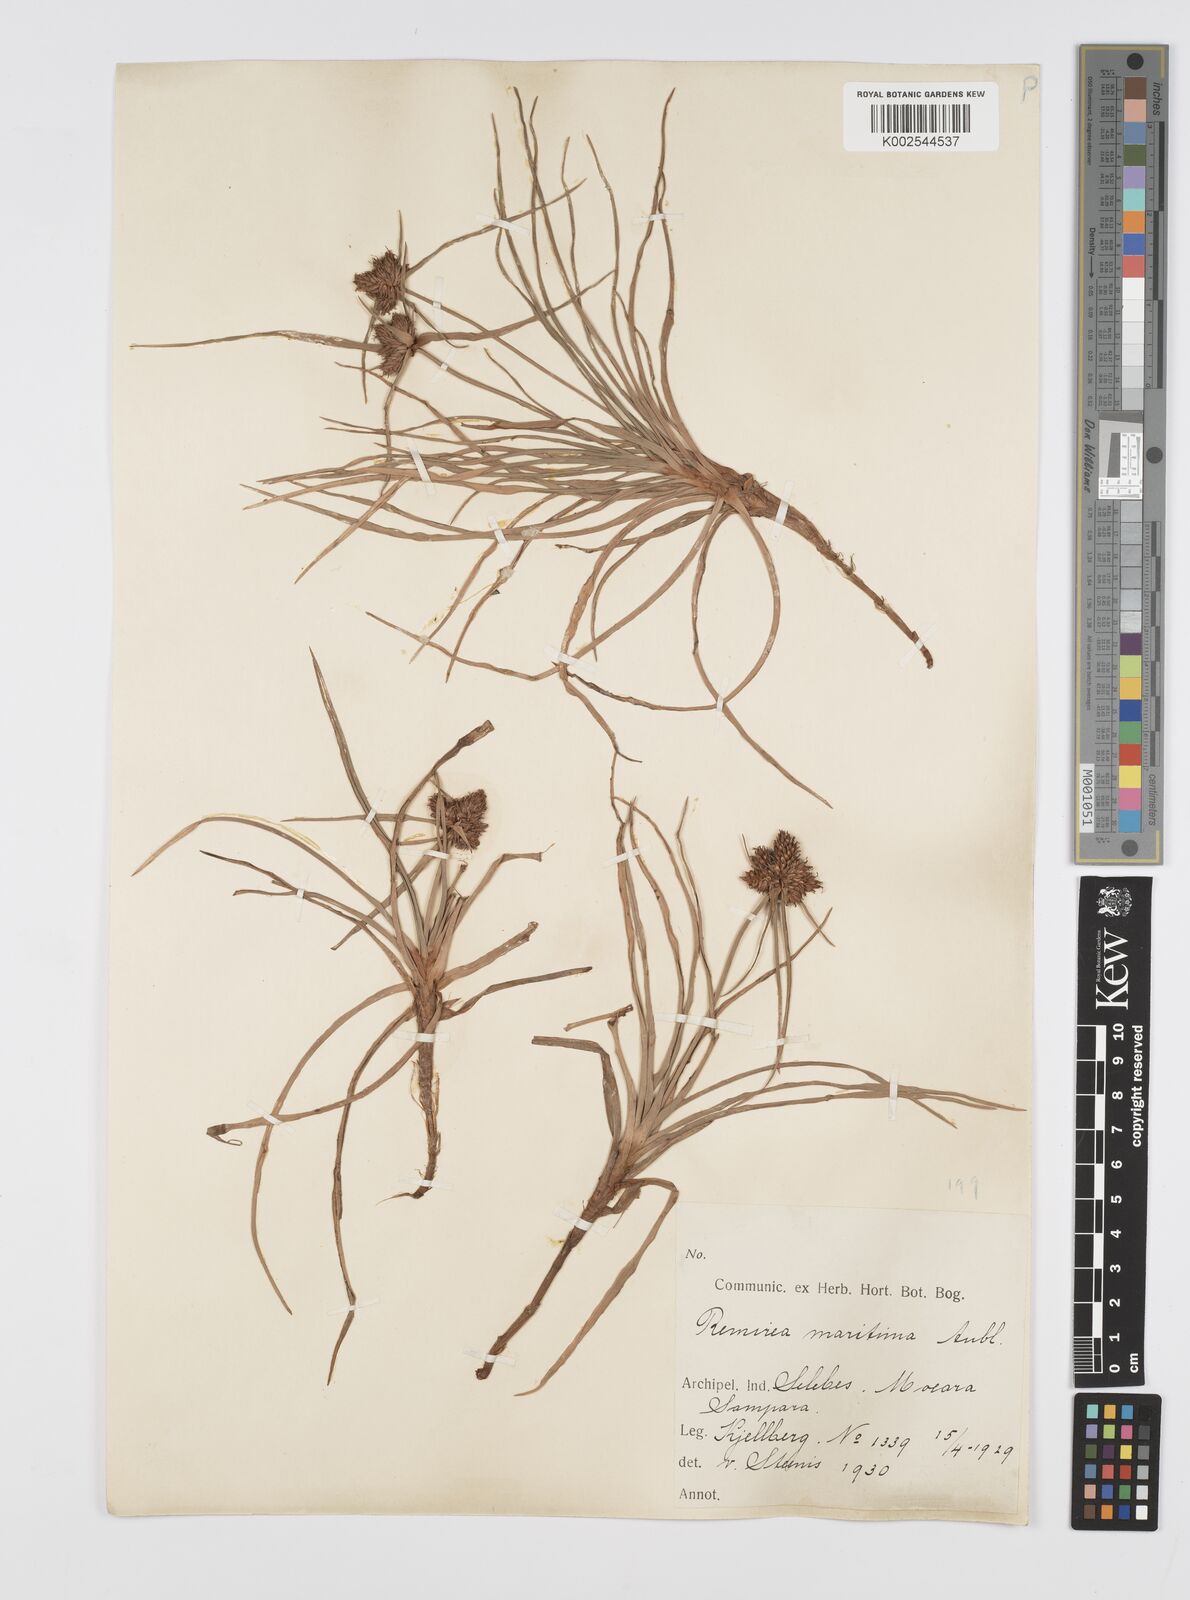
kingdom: Plantae
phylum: Tracheophyta
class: Liliopsida
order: Poales
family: Cyperaceae
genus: Cyperus
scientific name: Cyperus
